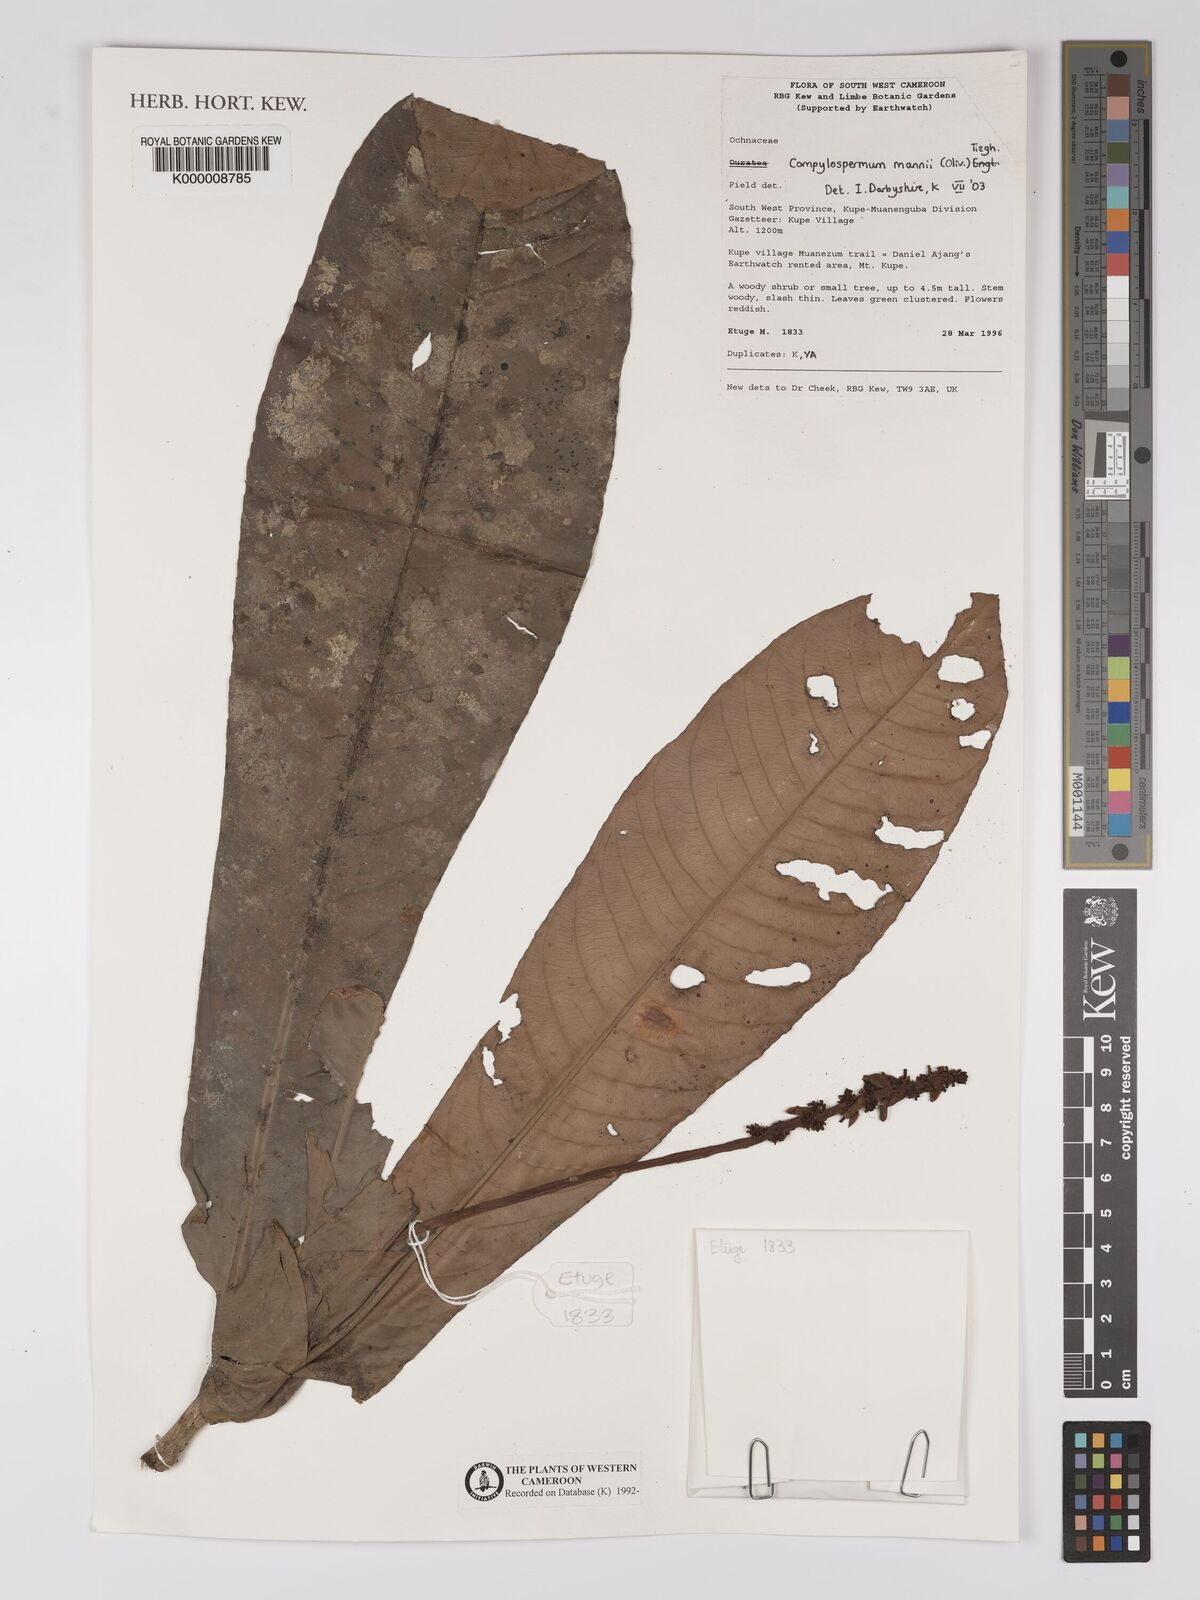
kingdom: Plantae
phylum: Tracheophyta
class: Magnoliopsida
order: Malpighiales
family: Ochnaceae
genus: Campylospermum
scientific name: Campylospermum mannii
